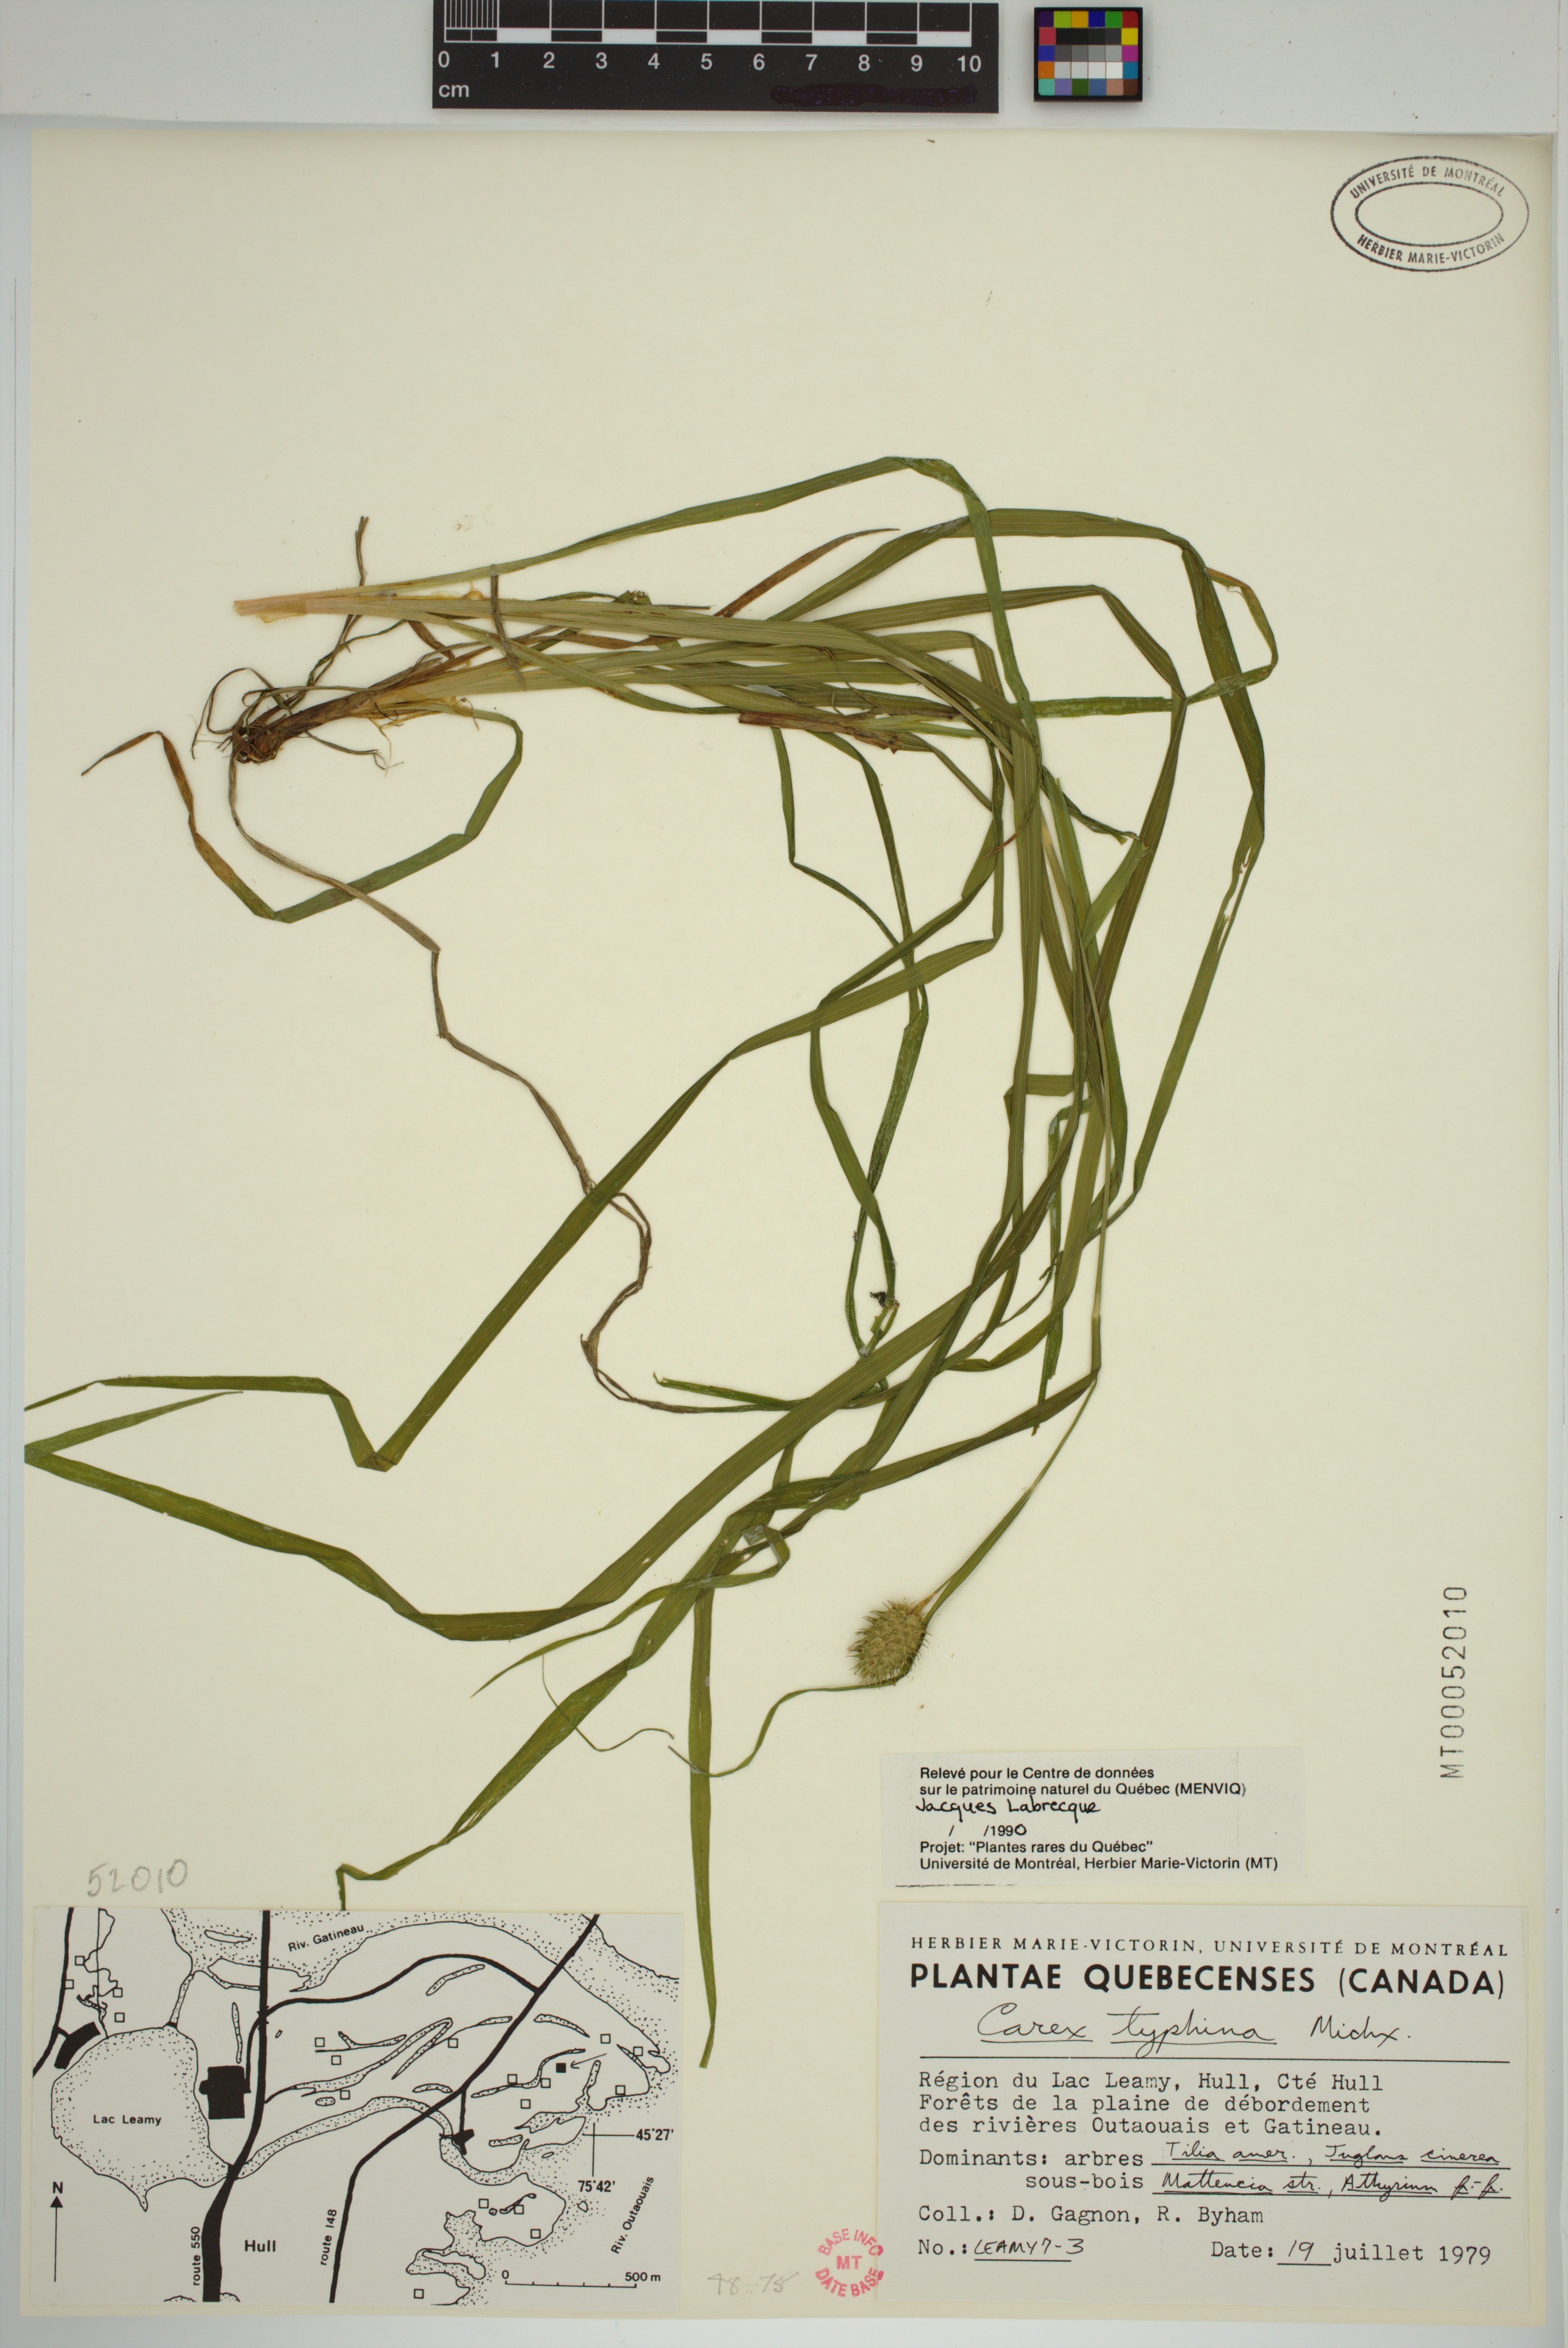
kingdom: Plantae
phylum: Tracheophyta
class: Liliopsida
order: Poales
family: Cyperaceae
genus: Carex
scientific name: Carex typhina
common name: Cattail sedge
